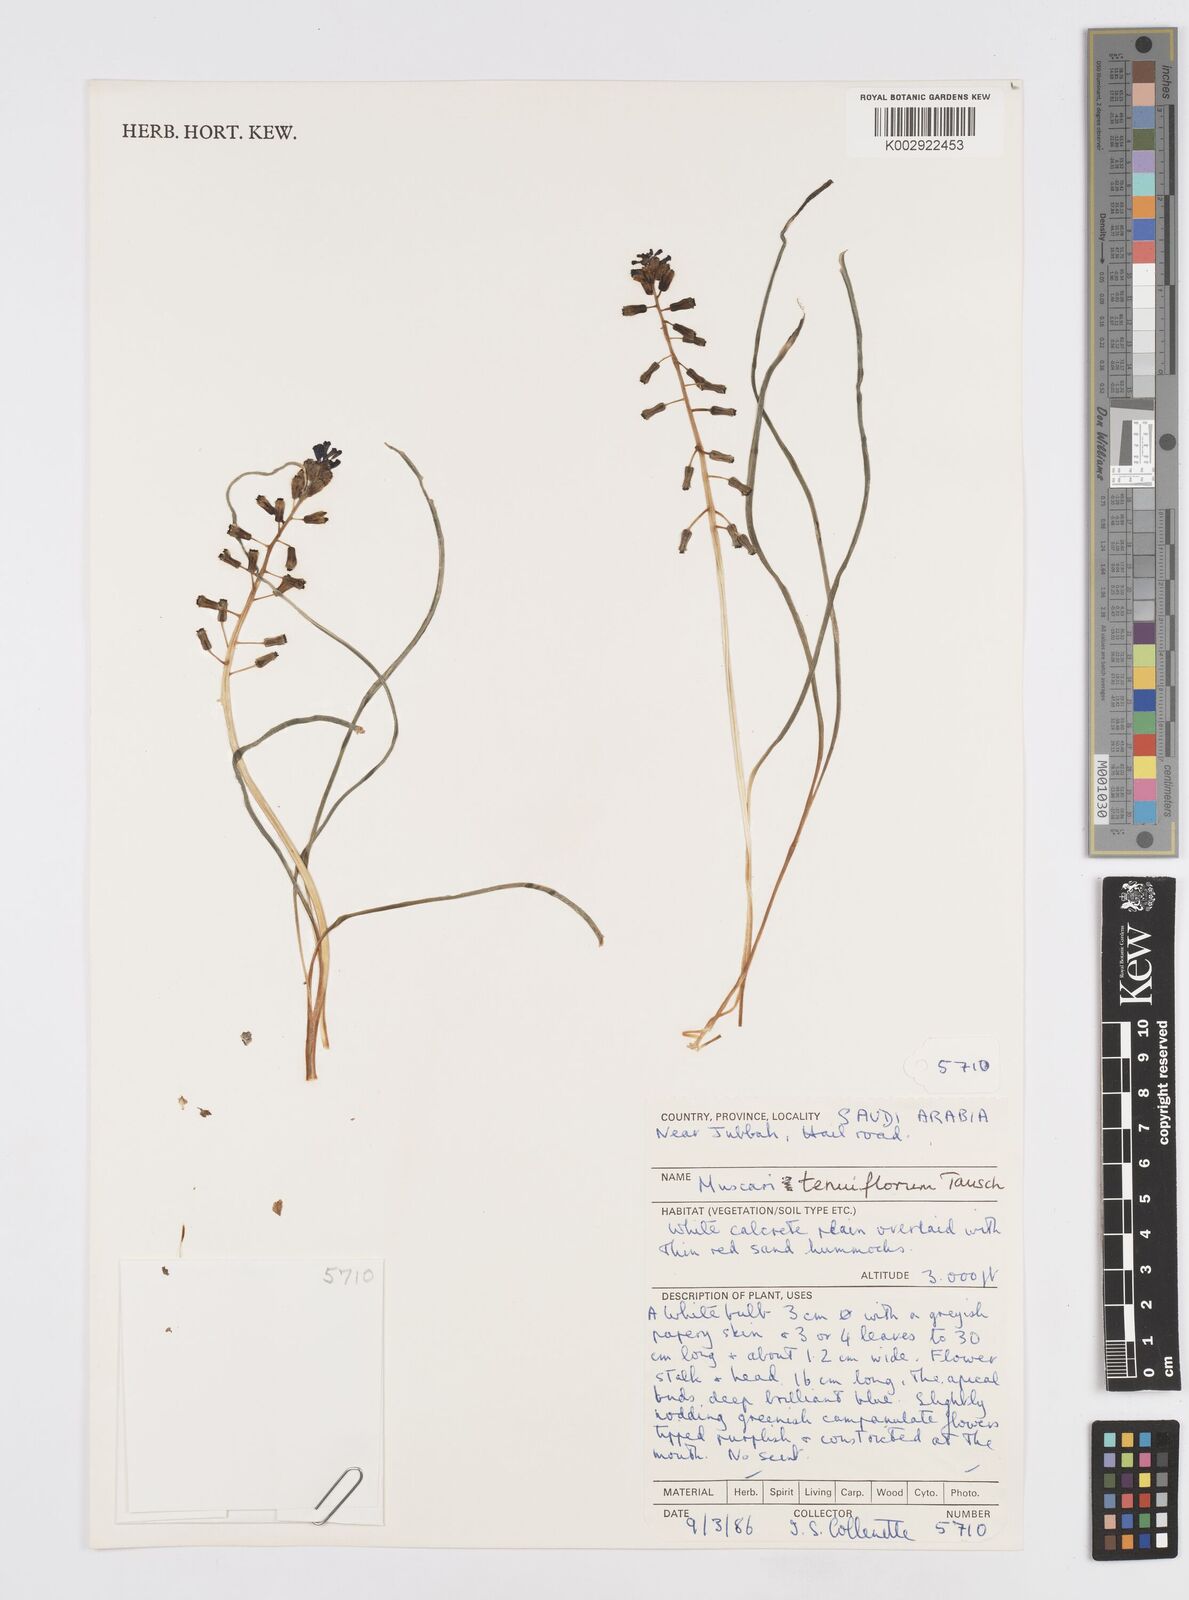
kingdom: Plantae
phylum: Tracheophyta
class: Liliopsida
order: Asparagales
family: Asparagaceae
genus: Muscari
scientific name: Muscari tenuiflorum
